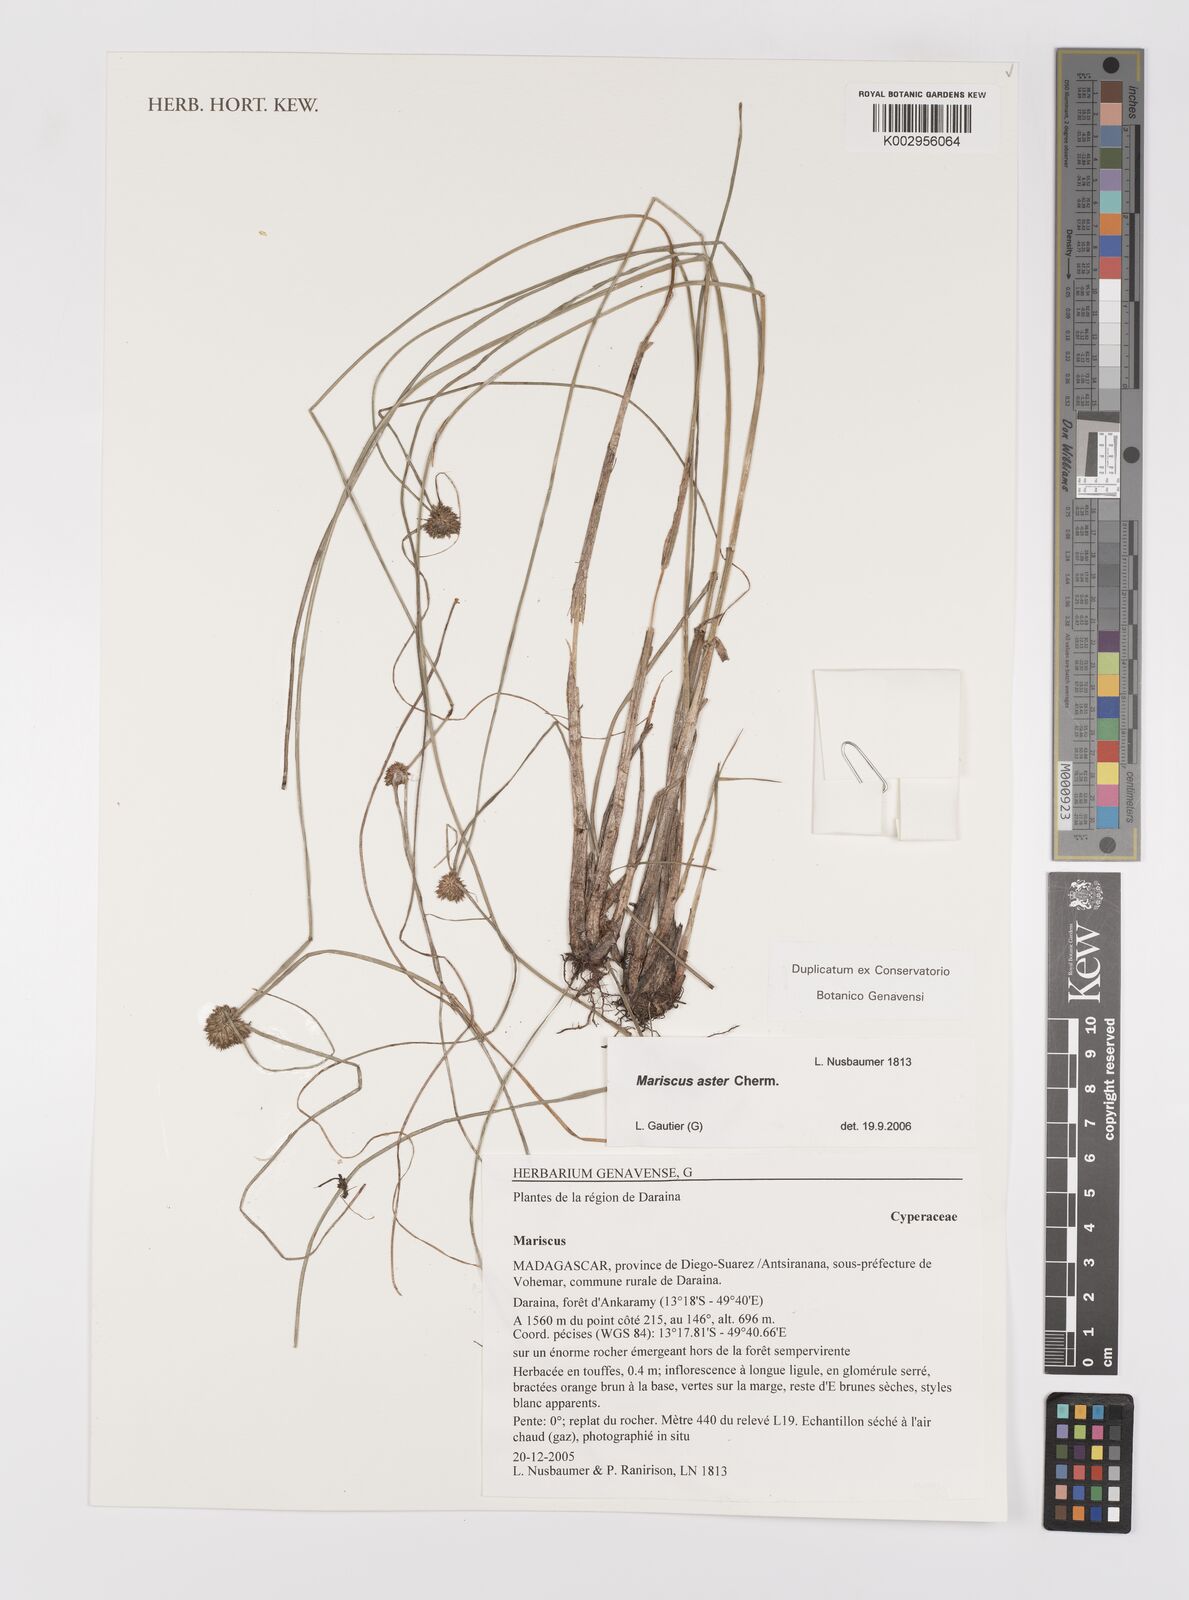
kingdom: Plantae
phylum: Tracheophyta
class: Liliopsida
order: Poales
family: Cyperaceae
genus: Cyperus
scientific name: Cyperus aster
